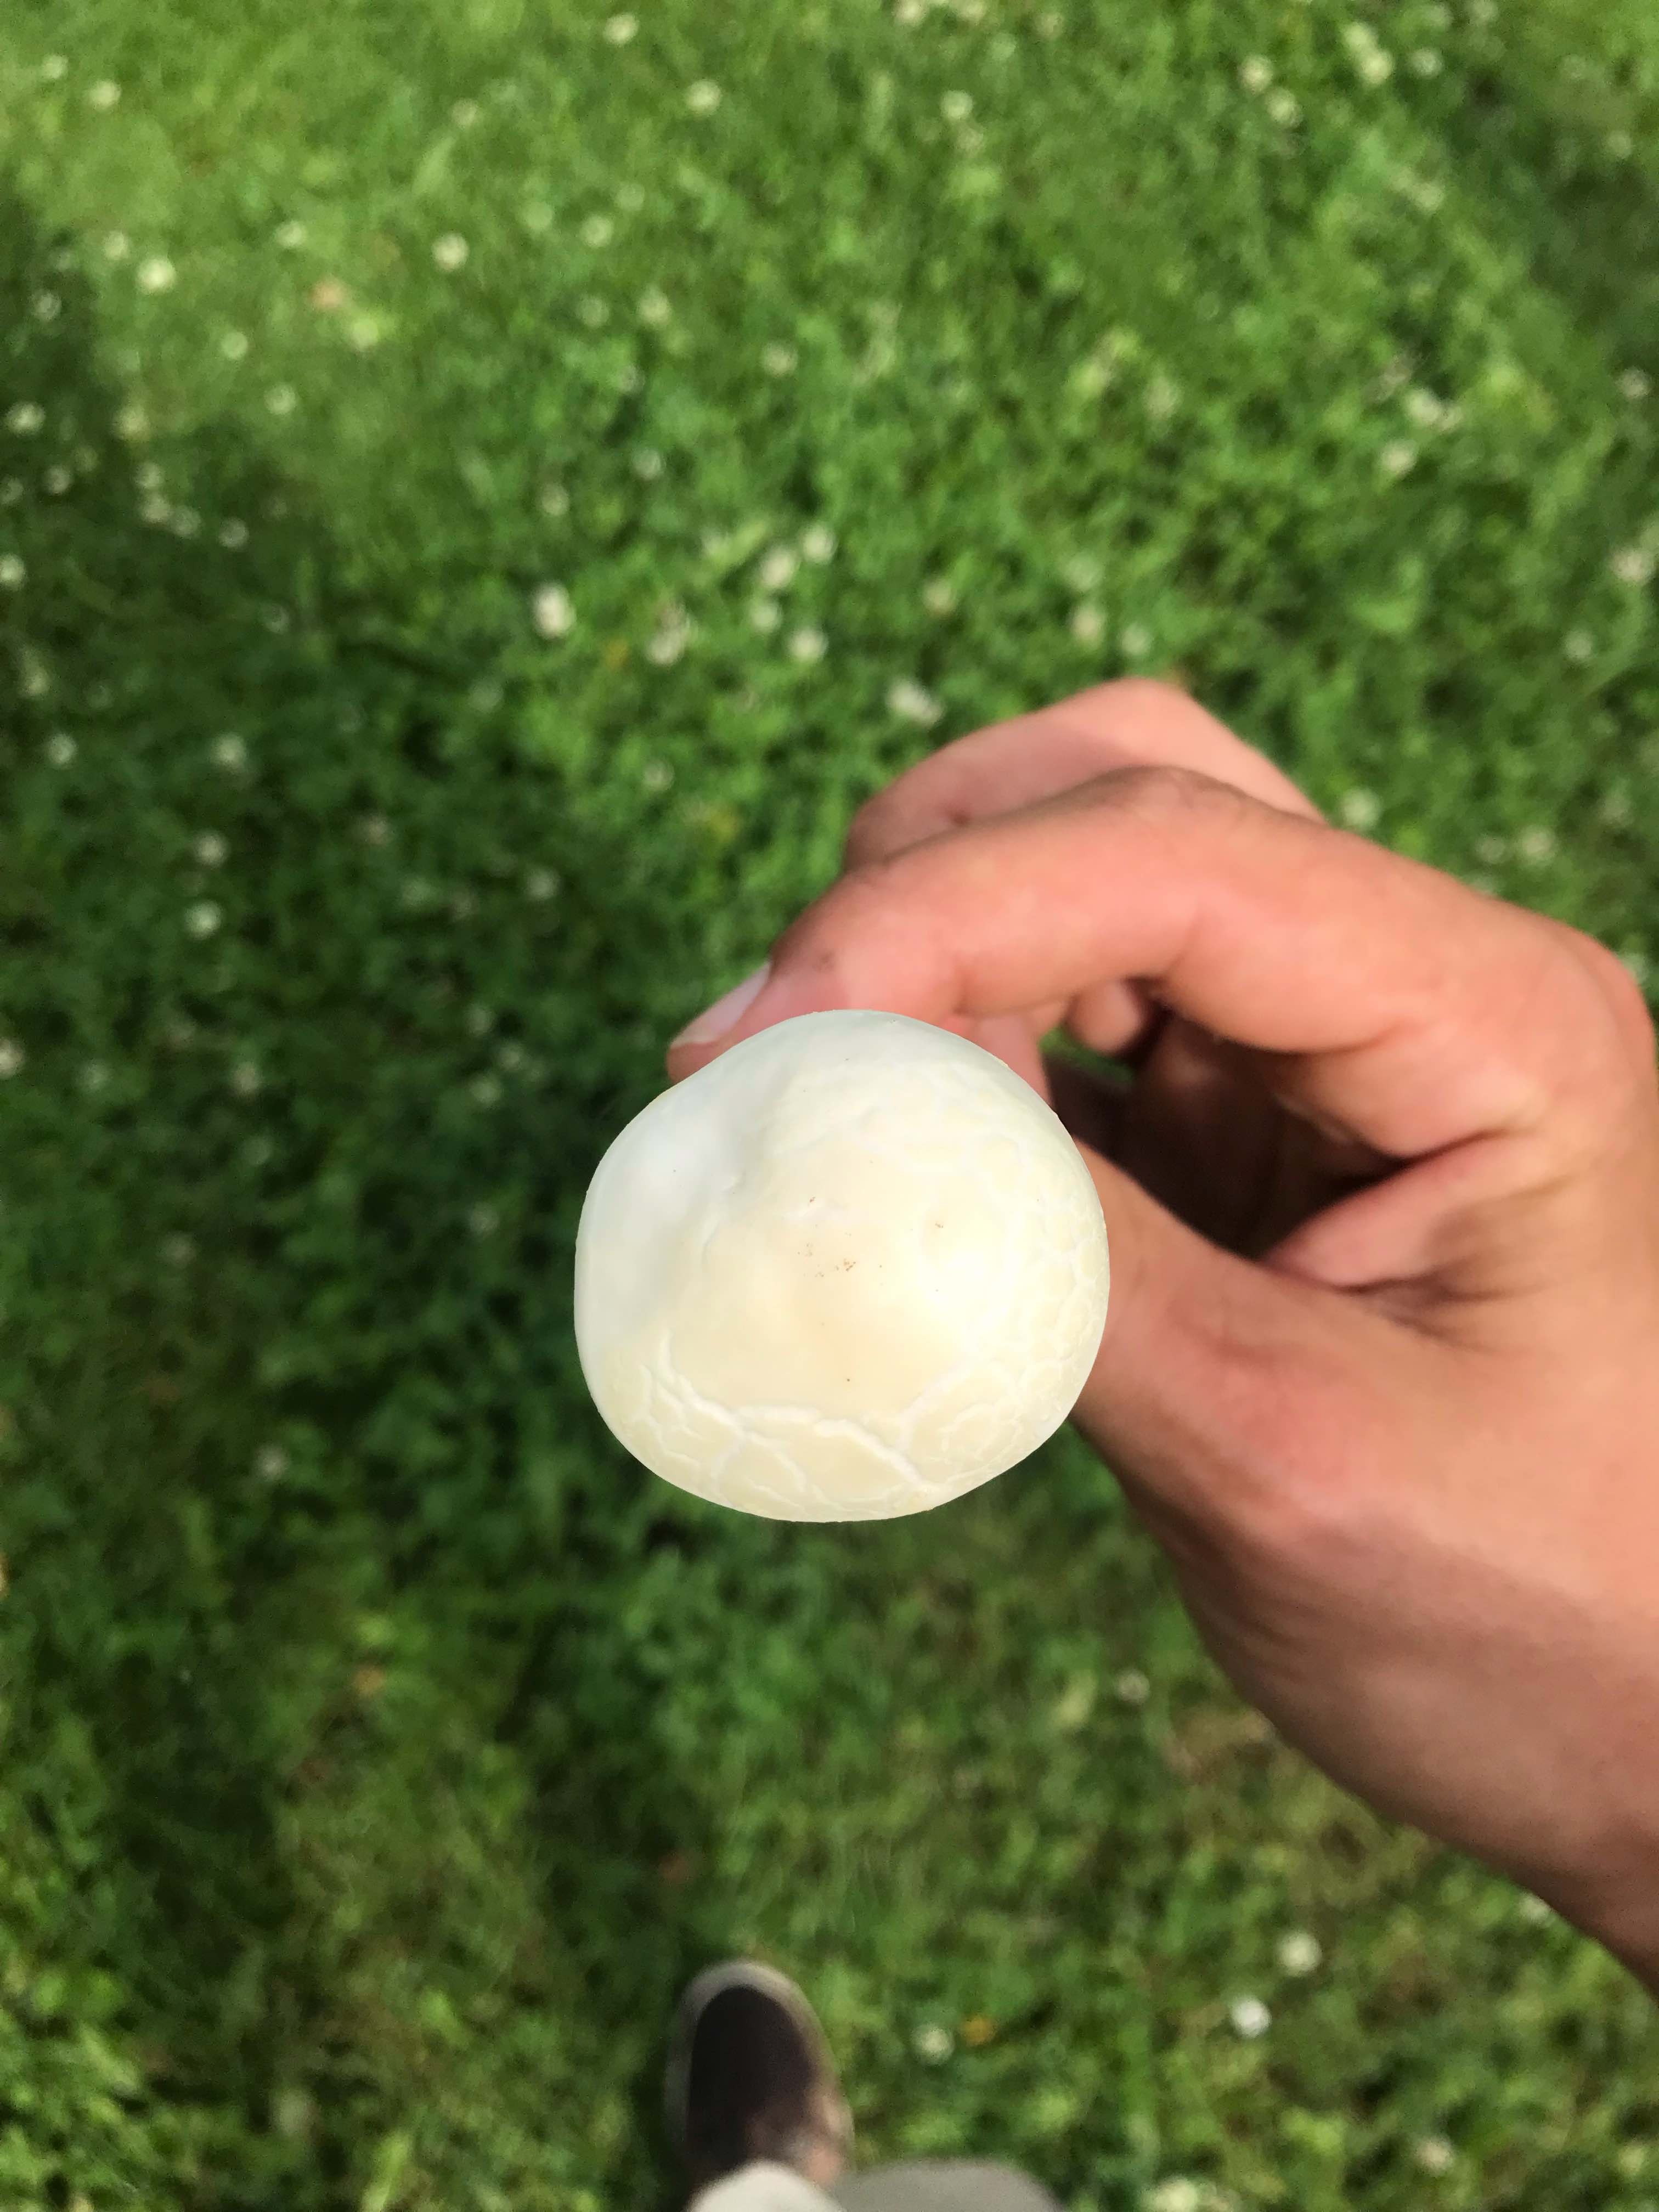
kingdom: Fungi
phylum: Basidiomycota
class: Agaricomycetes
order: Agaricales
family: Strophariaceae
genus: Agrocybe
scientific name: Agrocybe dura
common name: fastkødet agerhat
